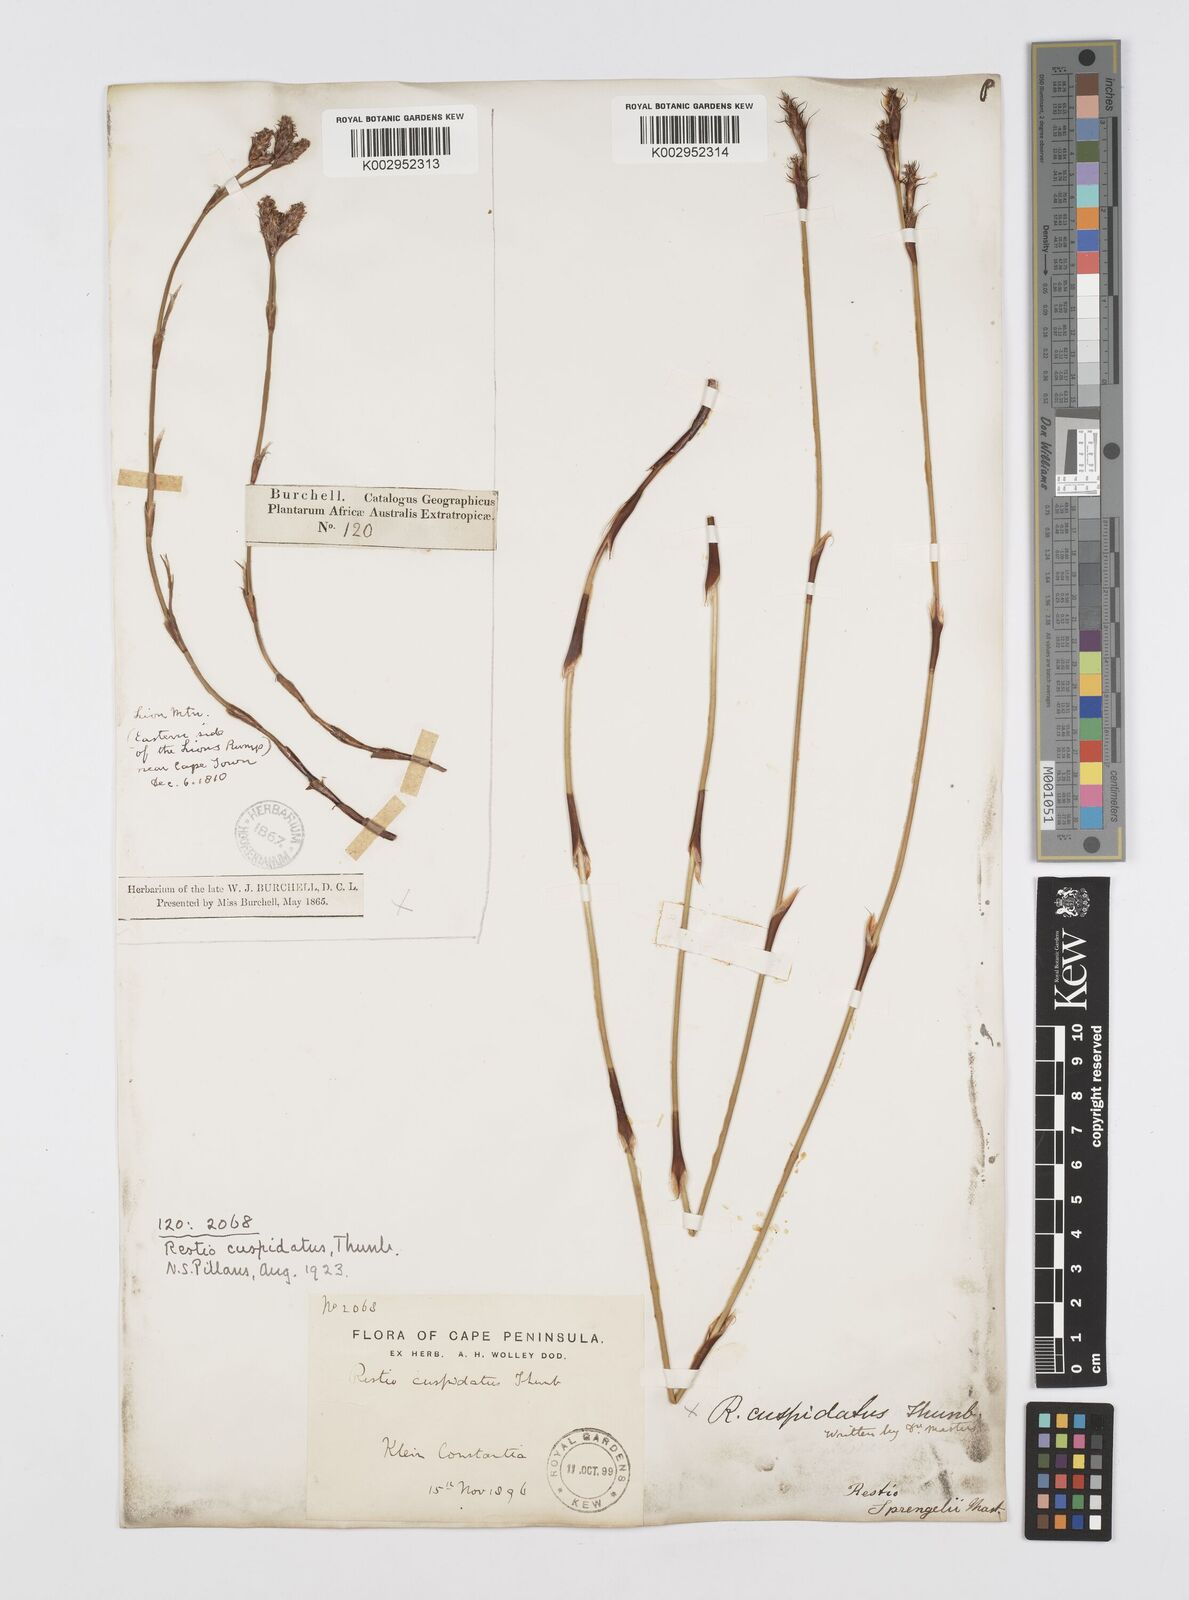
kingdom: Plantae
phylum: Tracheophyta
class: Liliopsida
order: Poales
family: Restionaceae
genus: Restio
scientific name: Restio capensis
